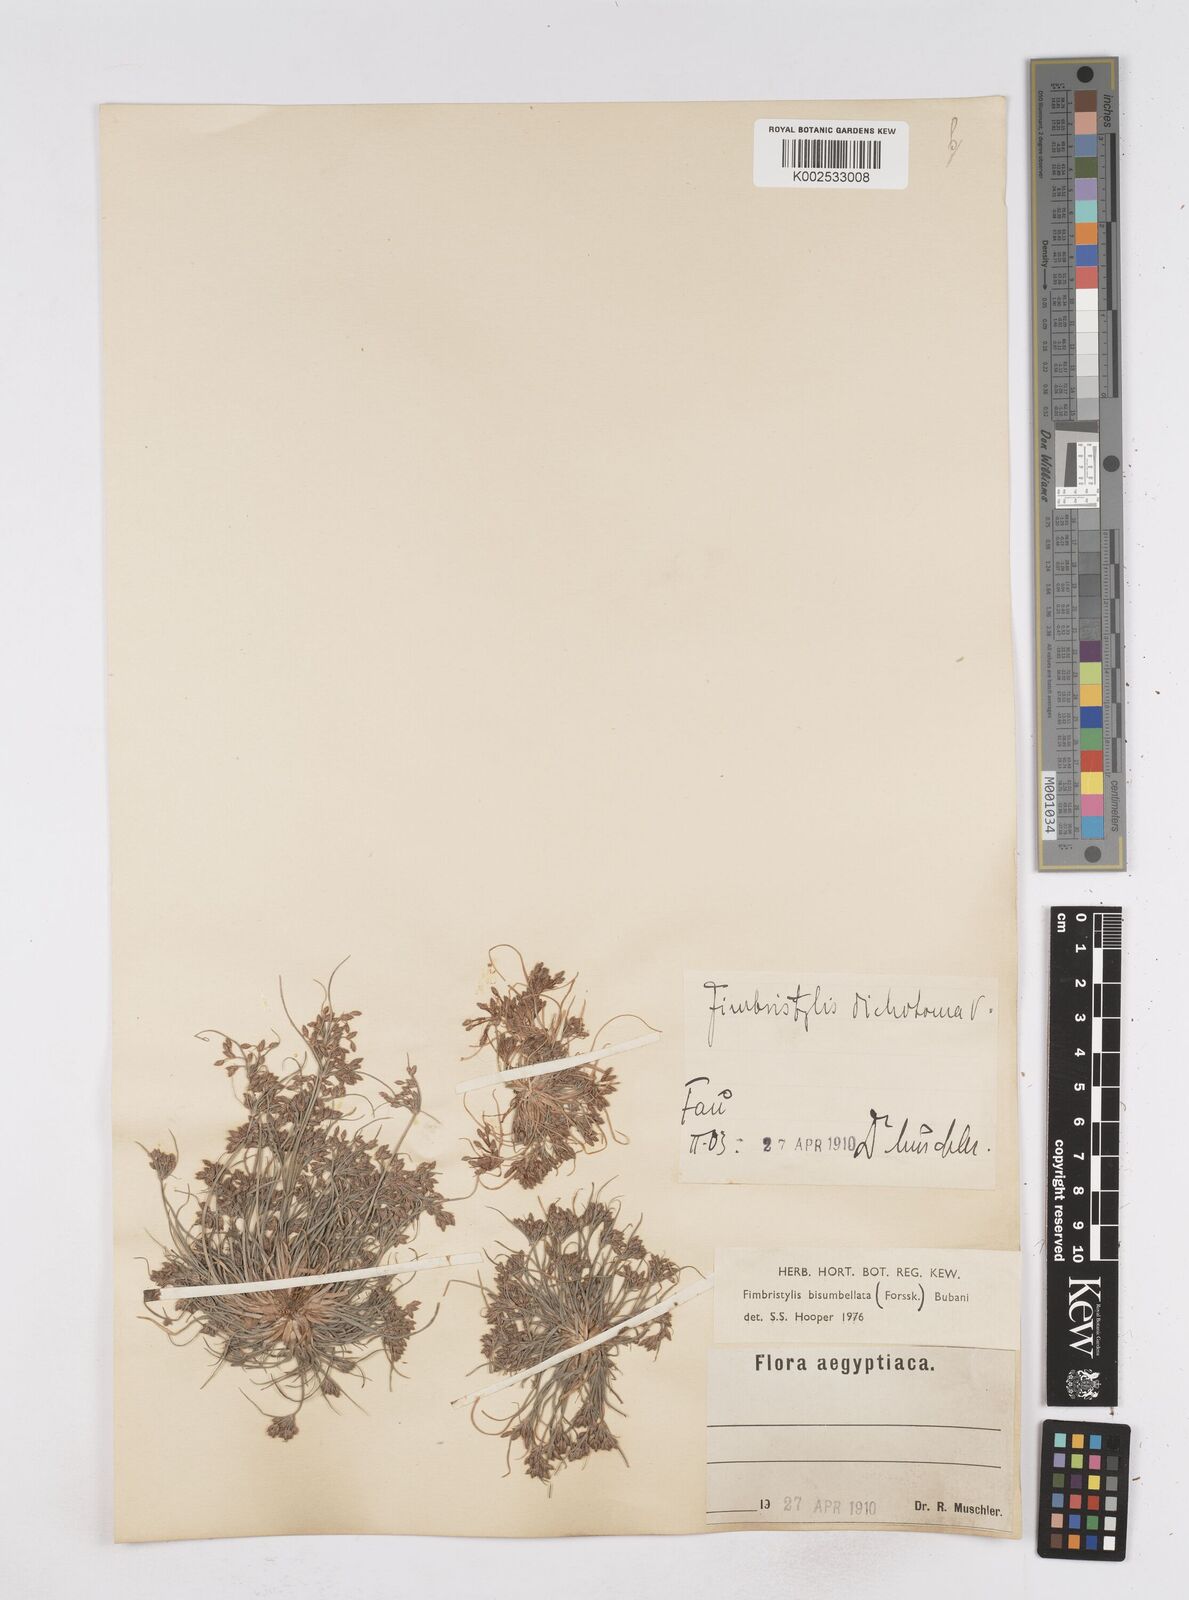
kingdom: Plantae
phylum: Tracheophyta
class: Liliopsida
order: Poales
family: Cyperaceae
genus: Fimbristylis
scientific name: Fimbristylis bisumbellata
